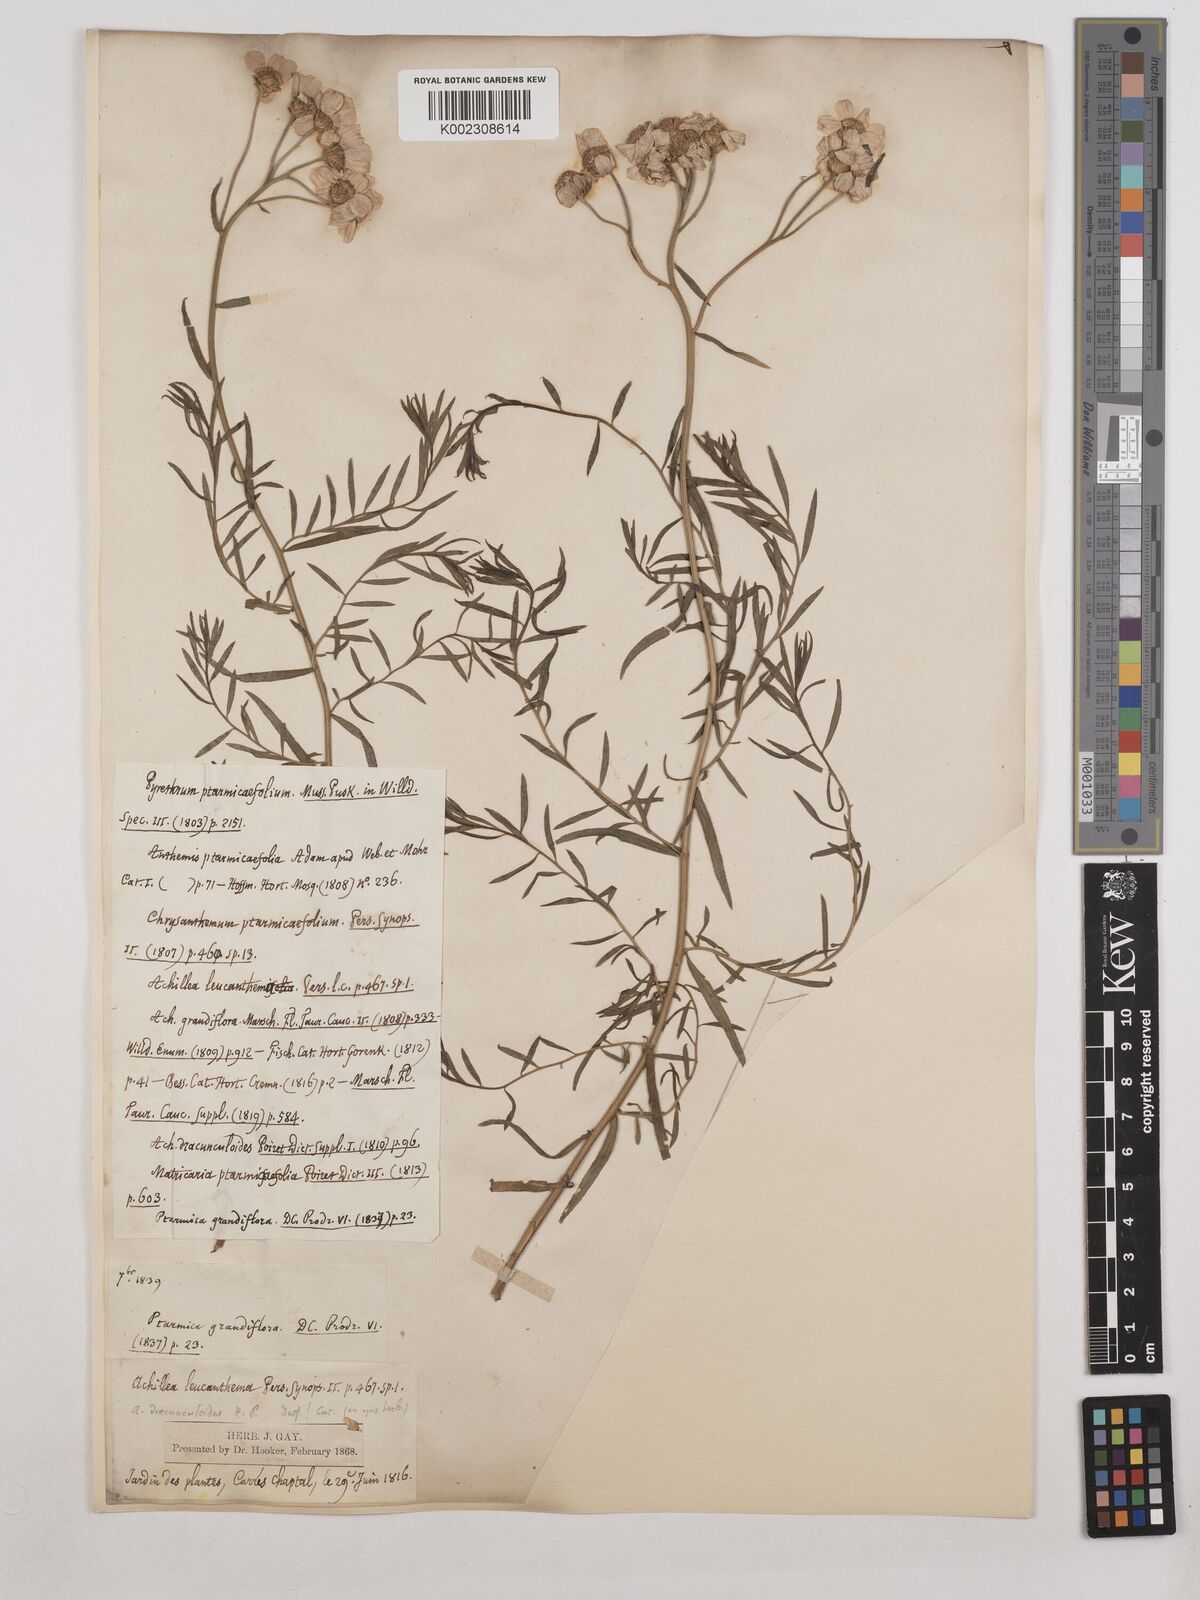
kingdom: Plantae
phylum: Tracheophyta
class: Magnoliopsida
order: Asterales
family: Asteraceae
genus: Achillea
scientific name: Achillea grandifolia
